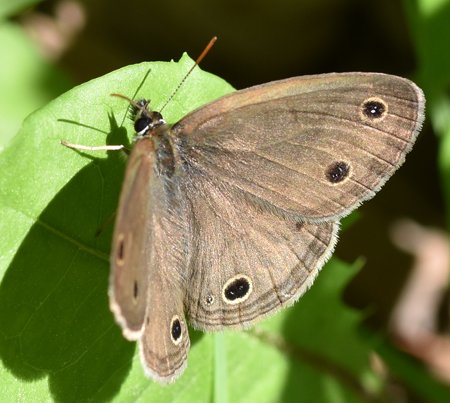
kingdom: Animalia
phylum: Arthropoda
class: Insecta
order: Lepidoptera
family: Nymphalidae
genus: Euptychia
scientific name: Euptychia cymela
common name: Little Wood Satyr
